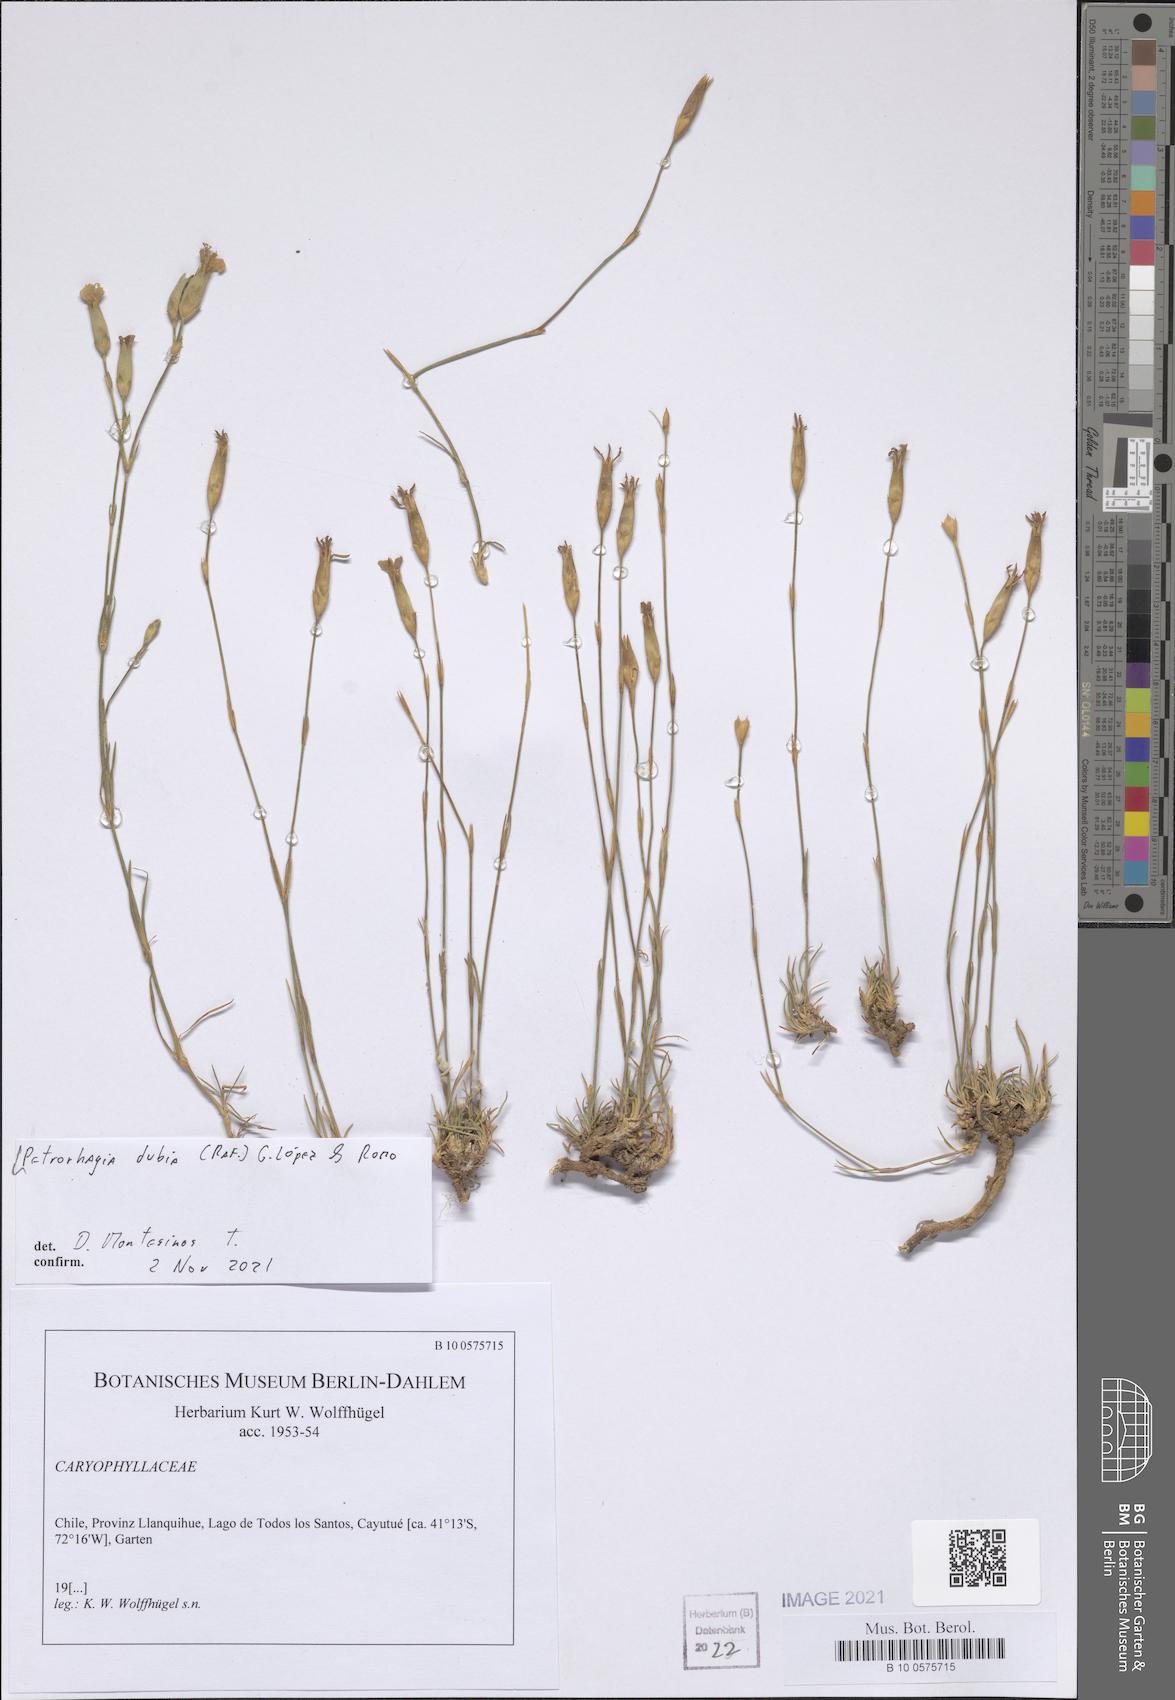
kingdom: Plantae
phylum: Tracheophyta
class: Magnoliopsida
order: Caryophyllales
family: Caryophyllaceae
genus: Petrorhagia
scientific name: Petrorhagia dubia
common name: Hairypink
